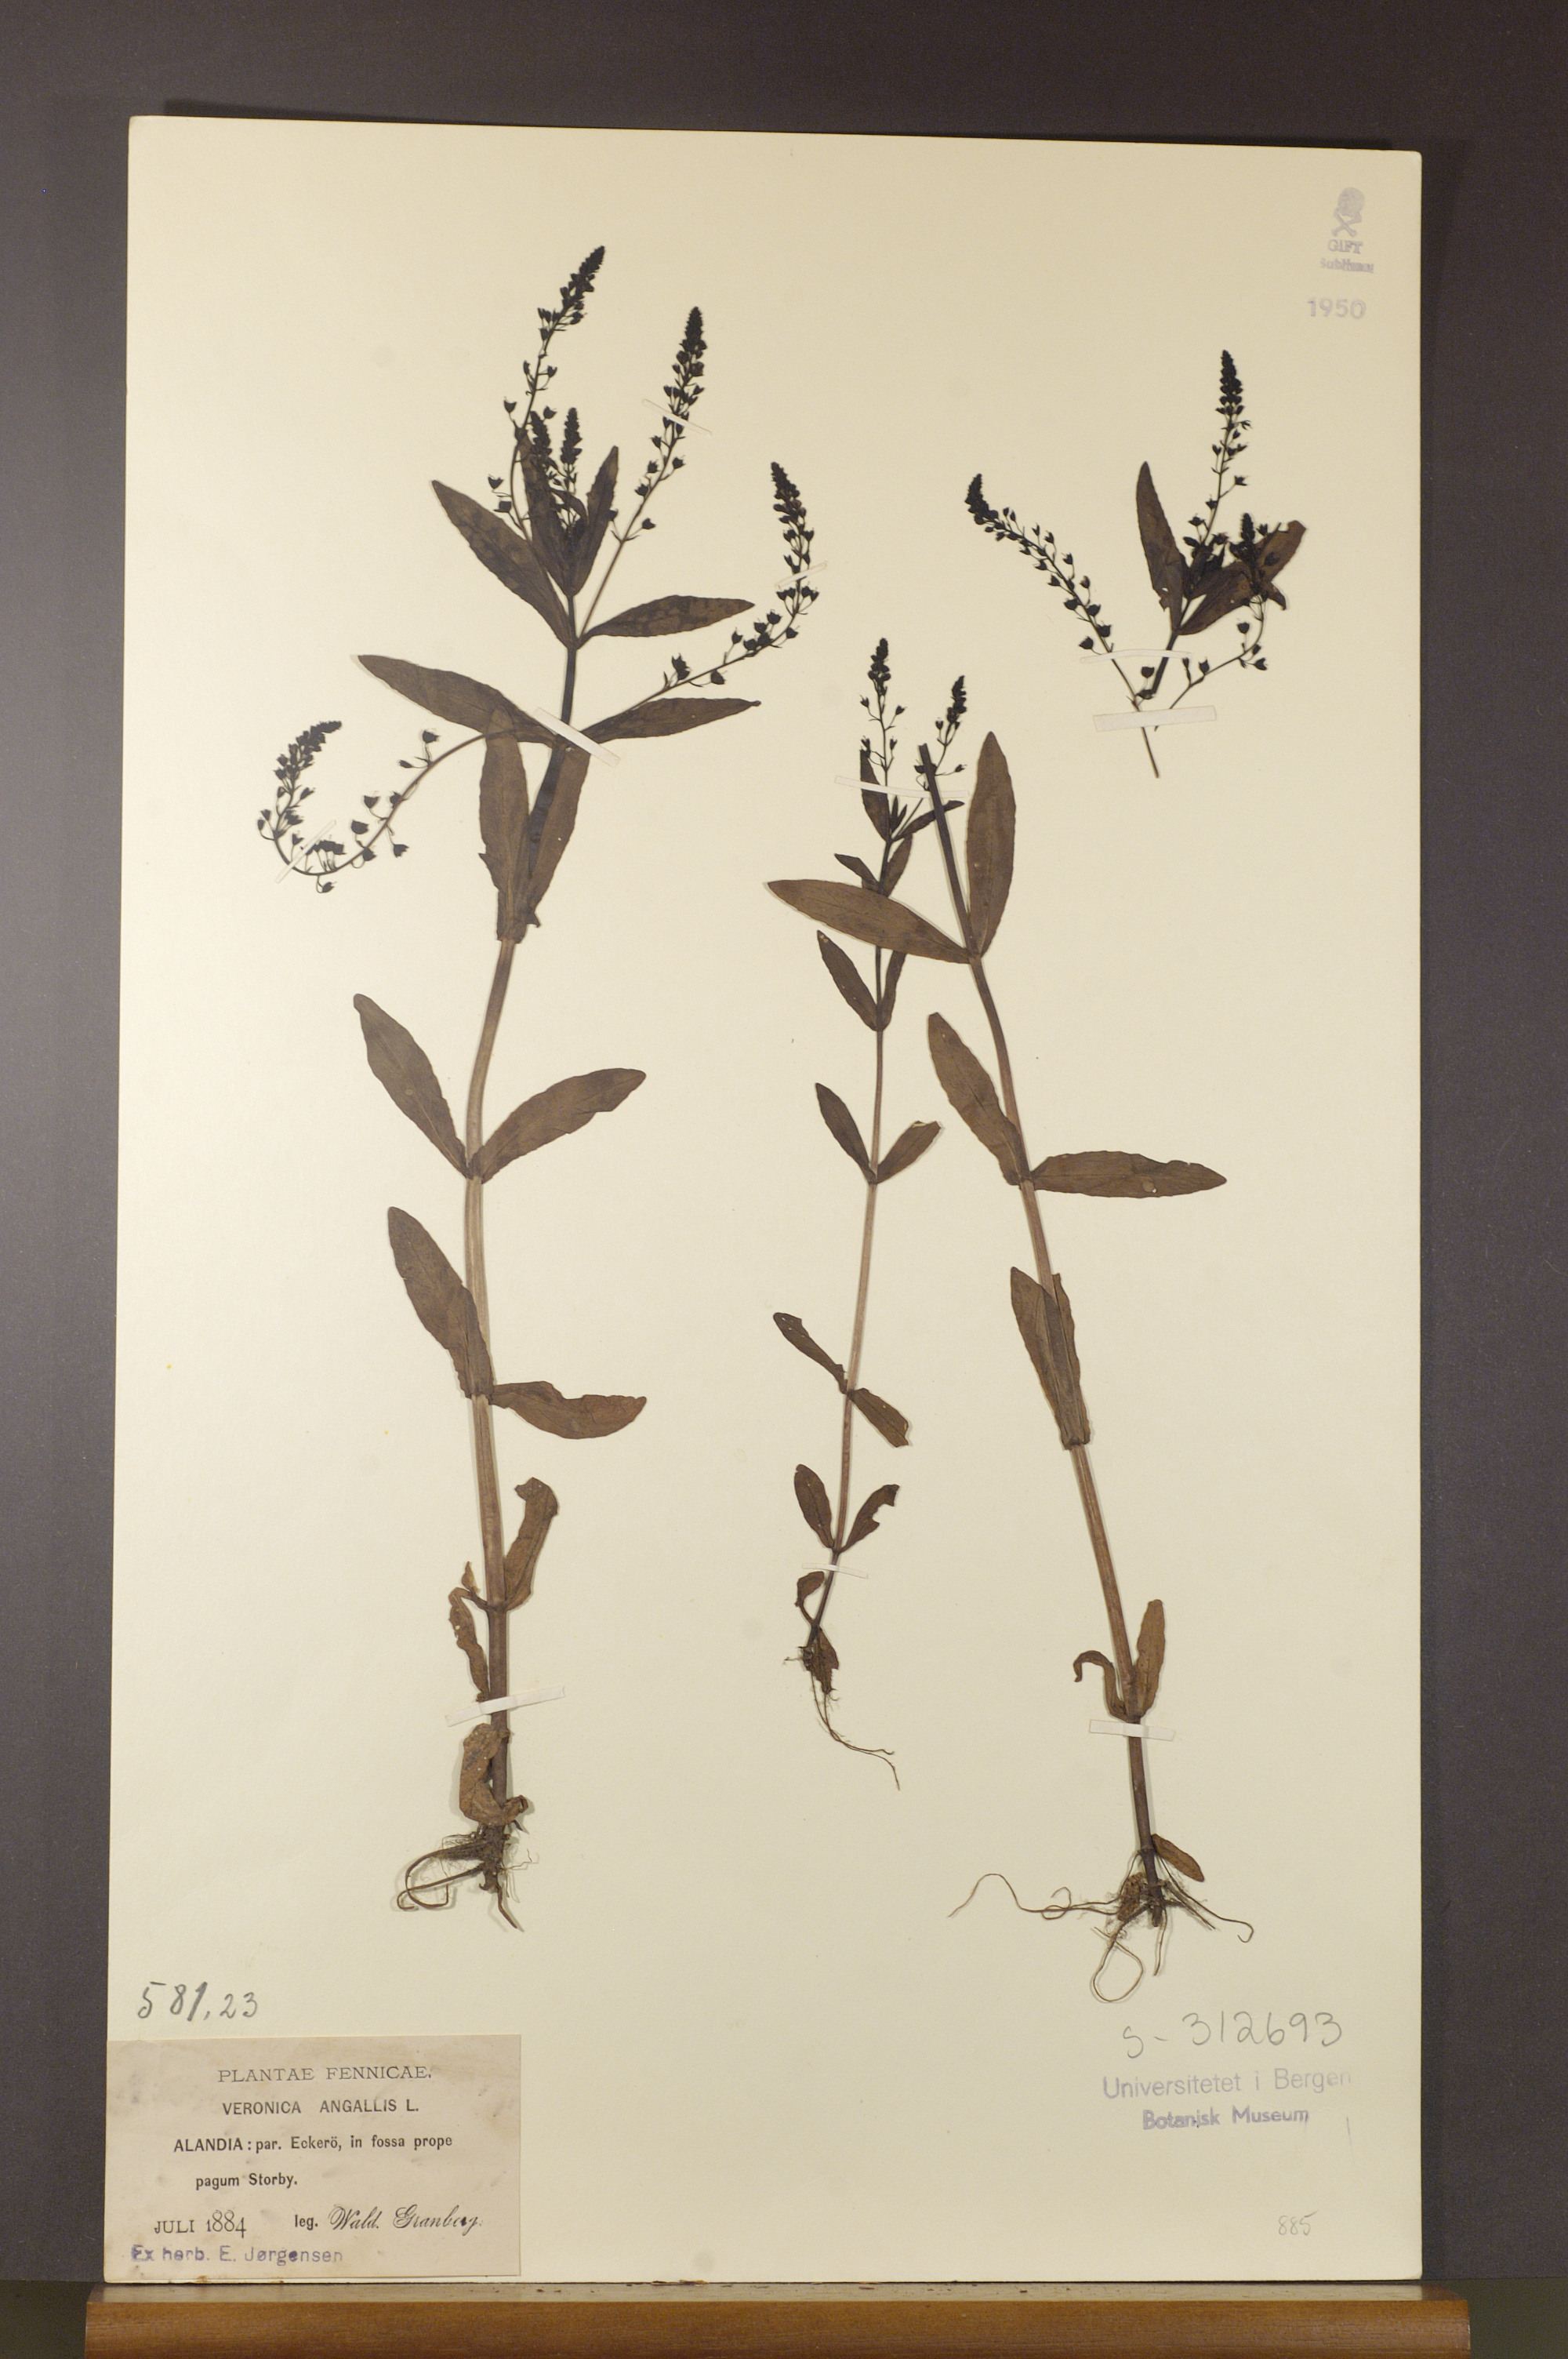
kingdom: Plantae
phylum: Tracheophyta
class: Magnoliopsida
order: Lamiales
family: Plantaginaceae
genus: Veronica
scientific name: Veronica anagallis-aquatica
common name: Water speedwell
